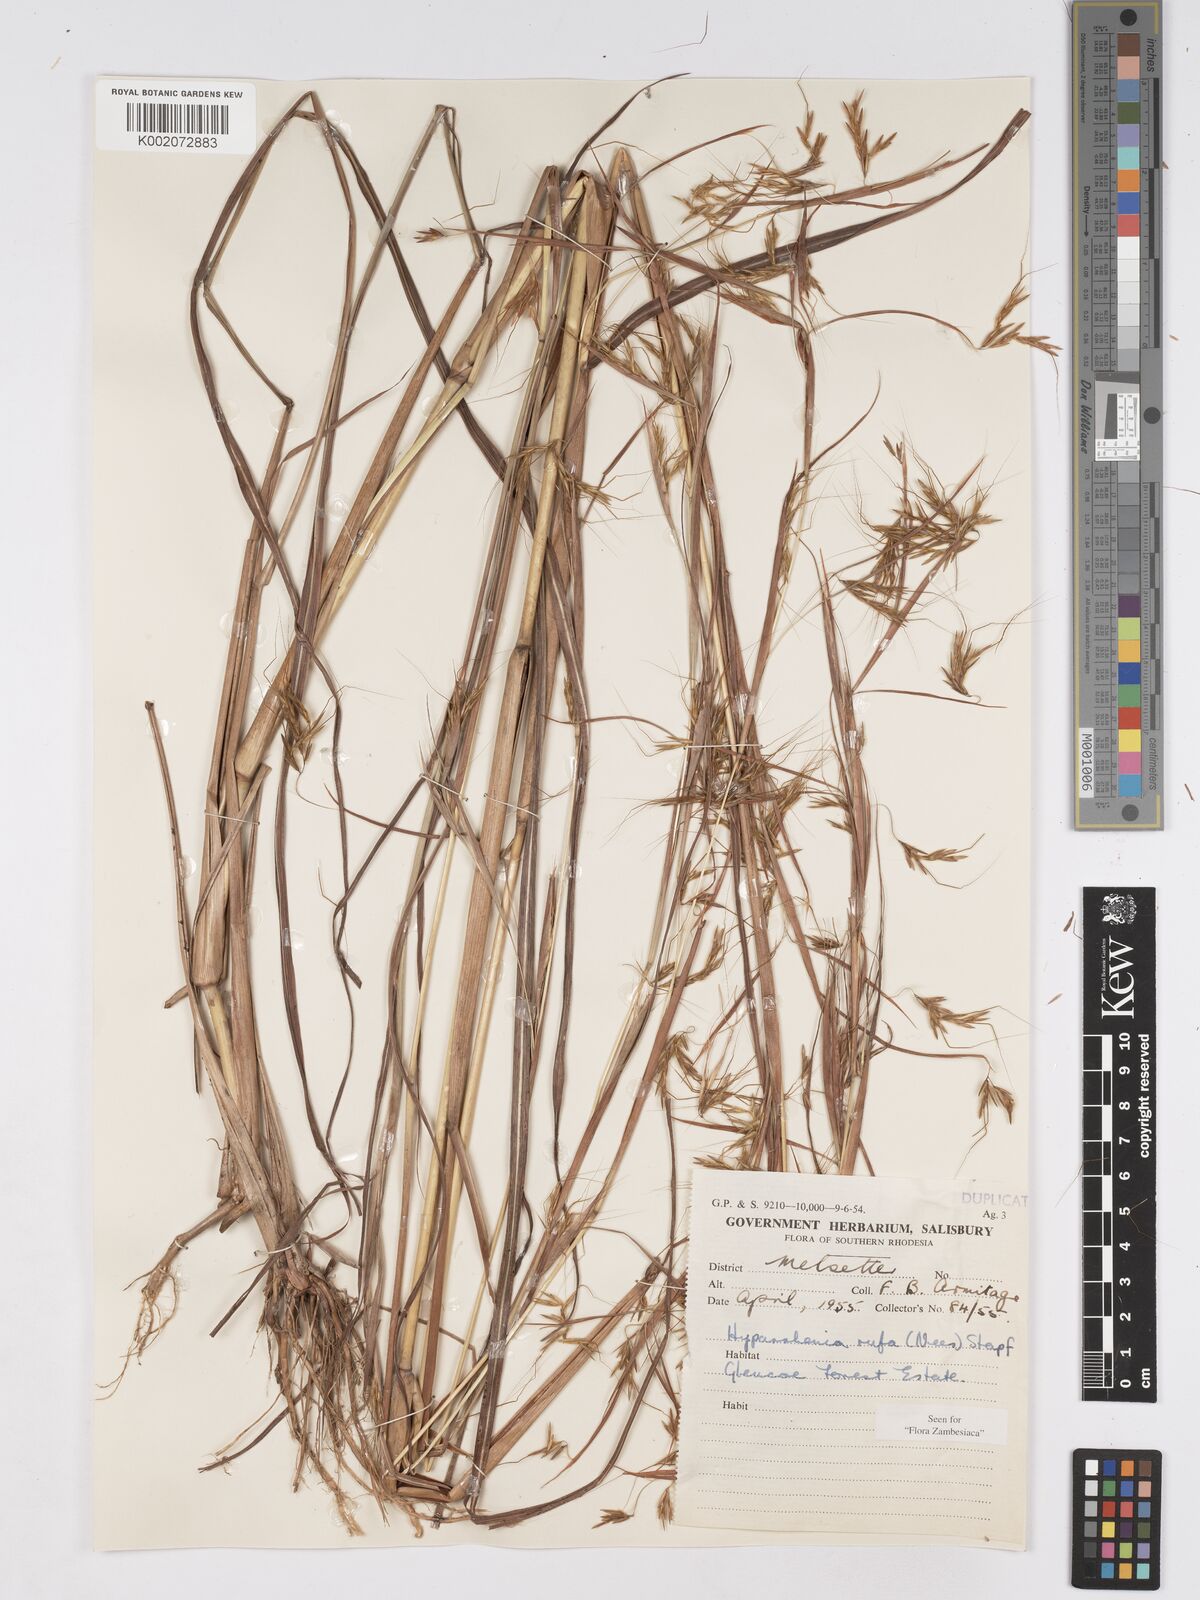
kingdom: Plantae
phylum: Tracheophyta
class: Liliopsida
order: Poales
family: Poaceae
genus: Hyparrhenia
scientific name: Hyparrhenia rufa
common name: Jaraguagrass
